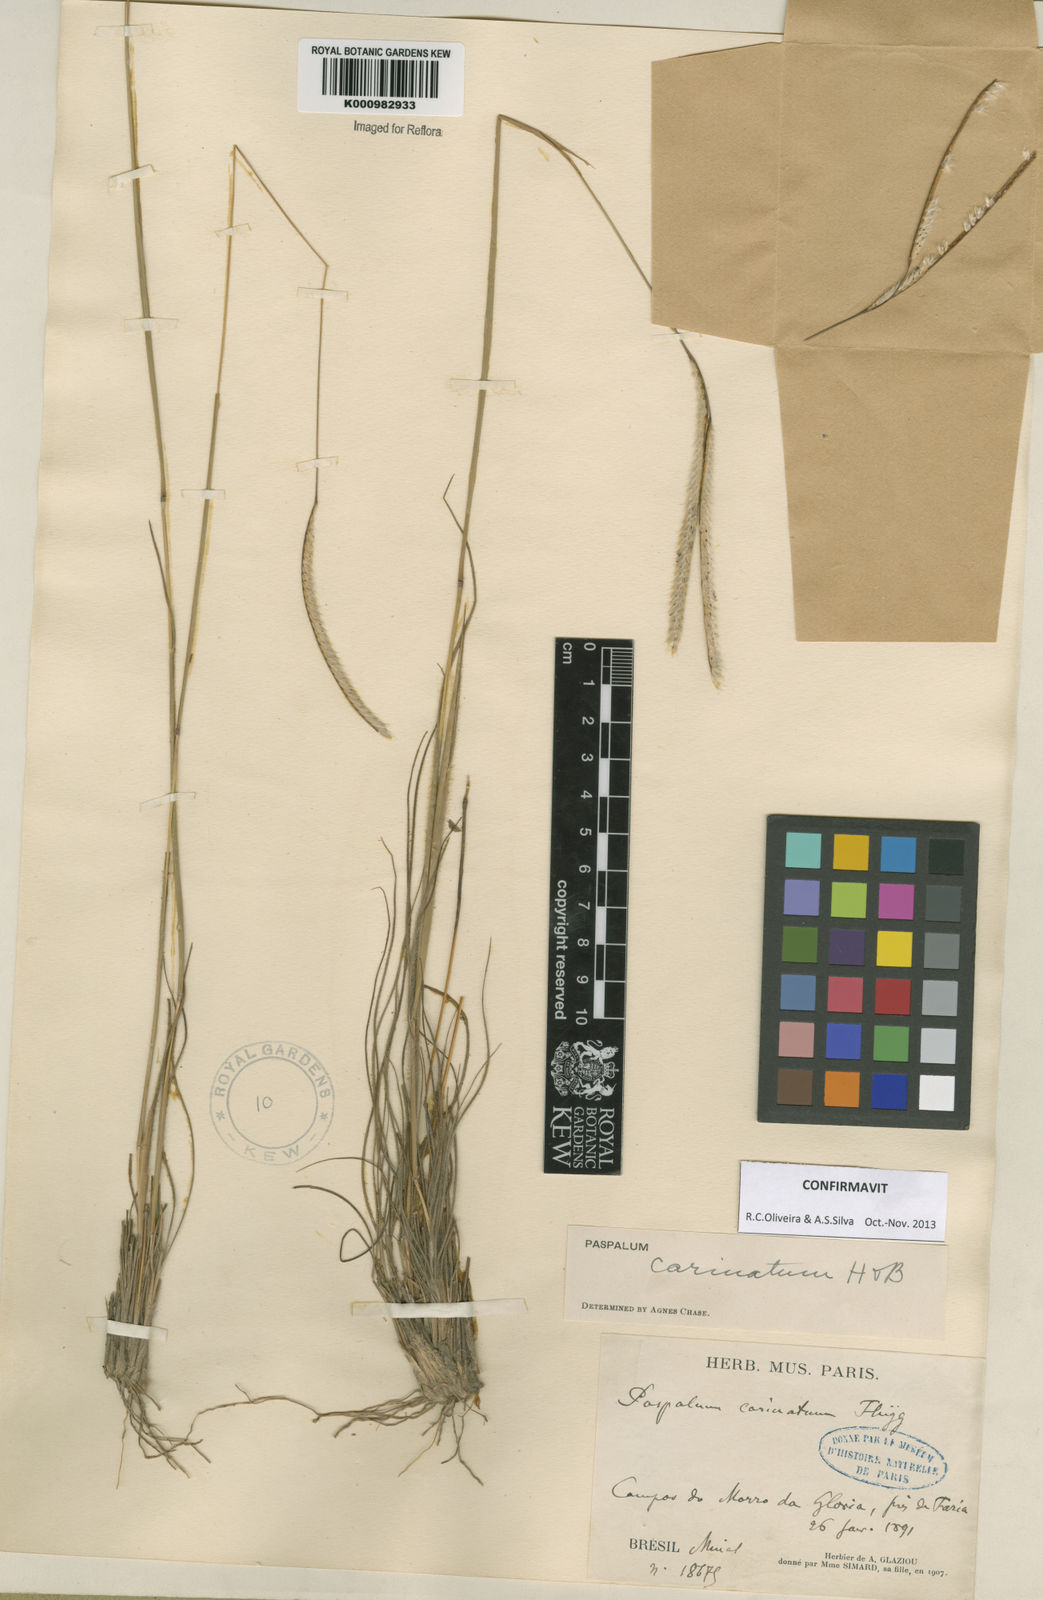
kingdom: Plantae
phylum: Tracheophyta
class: Liliopsida
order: Poales
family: Poaceae
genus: Paspalum
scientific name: Paspalum
